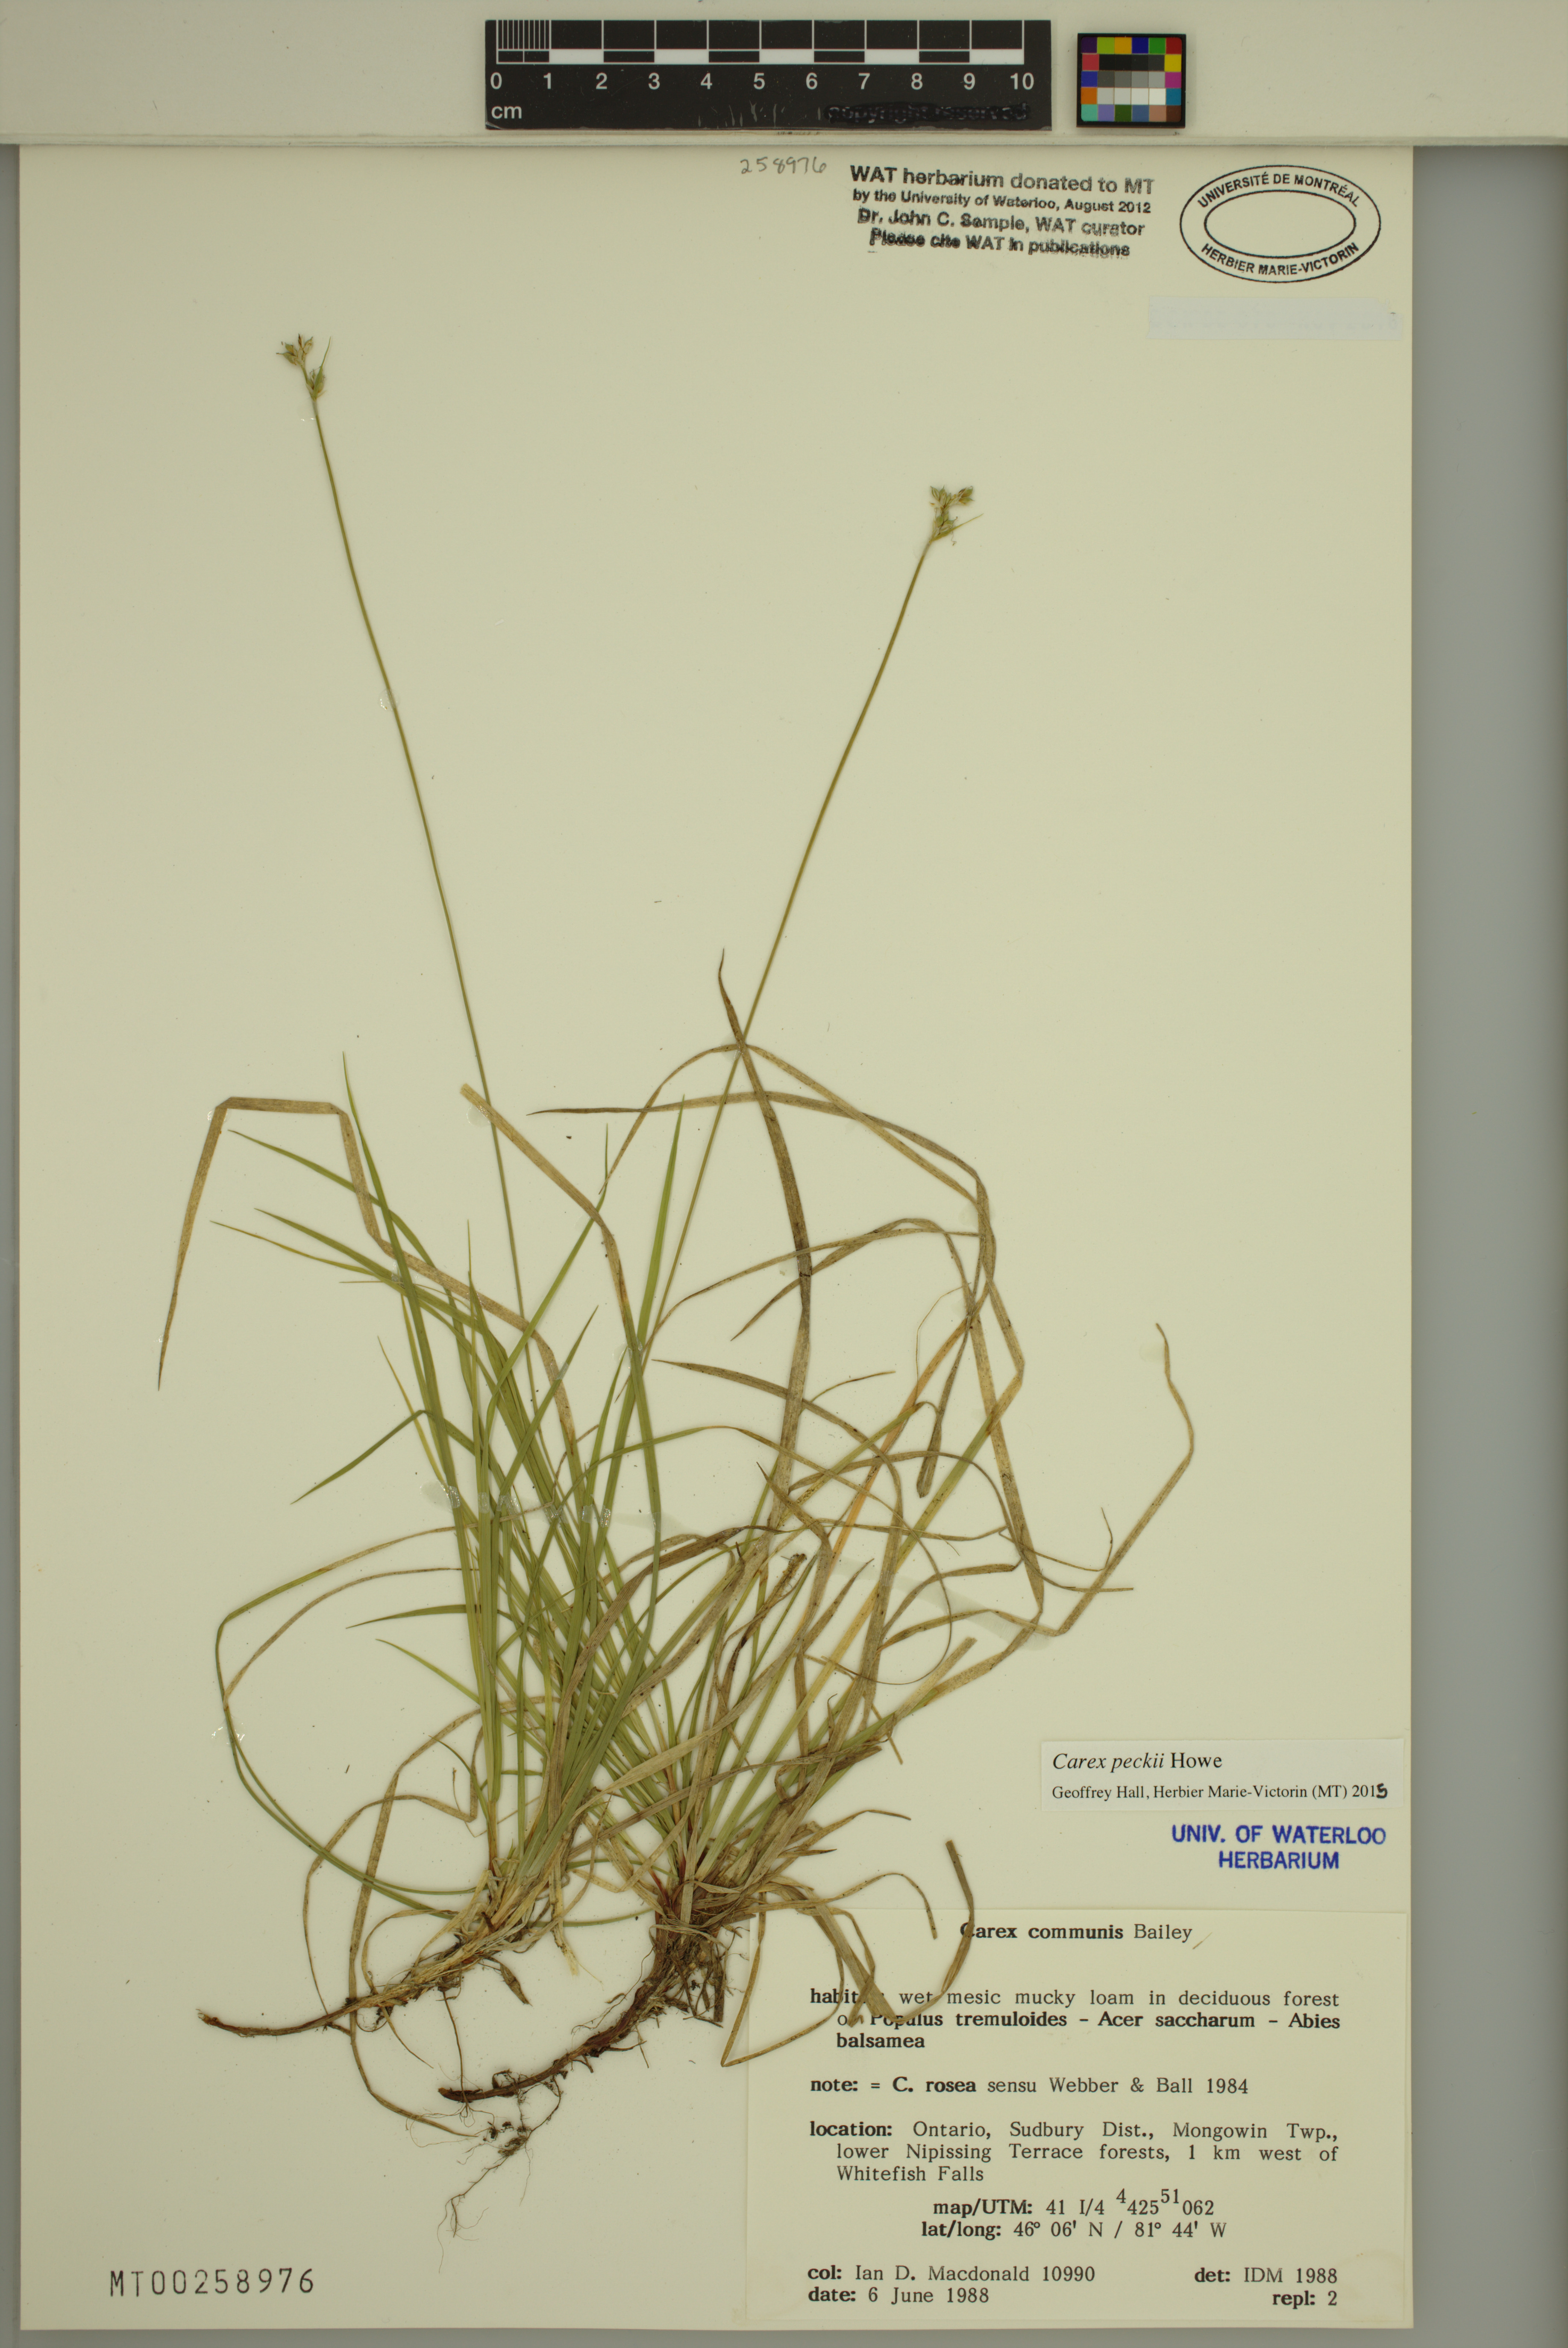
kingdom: Plantae
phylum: Tracheophyta
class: Liliopsida
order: Poales
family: Cyperaceae
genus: Carex
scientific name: Carex peckii
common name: Peck's oak sedge
